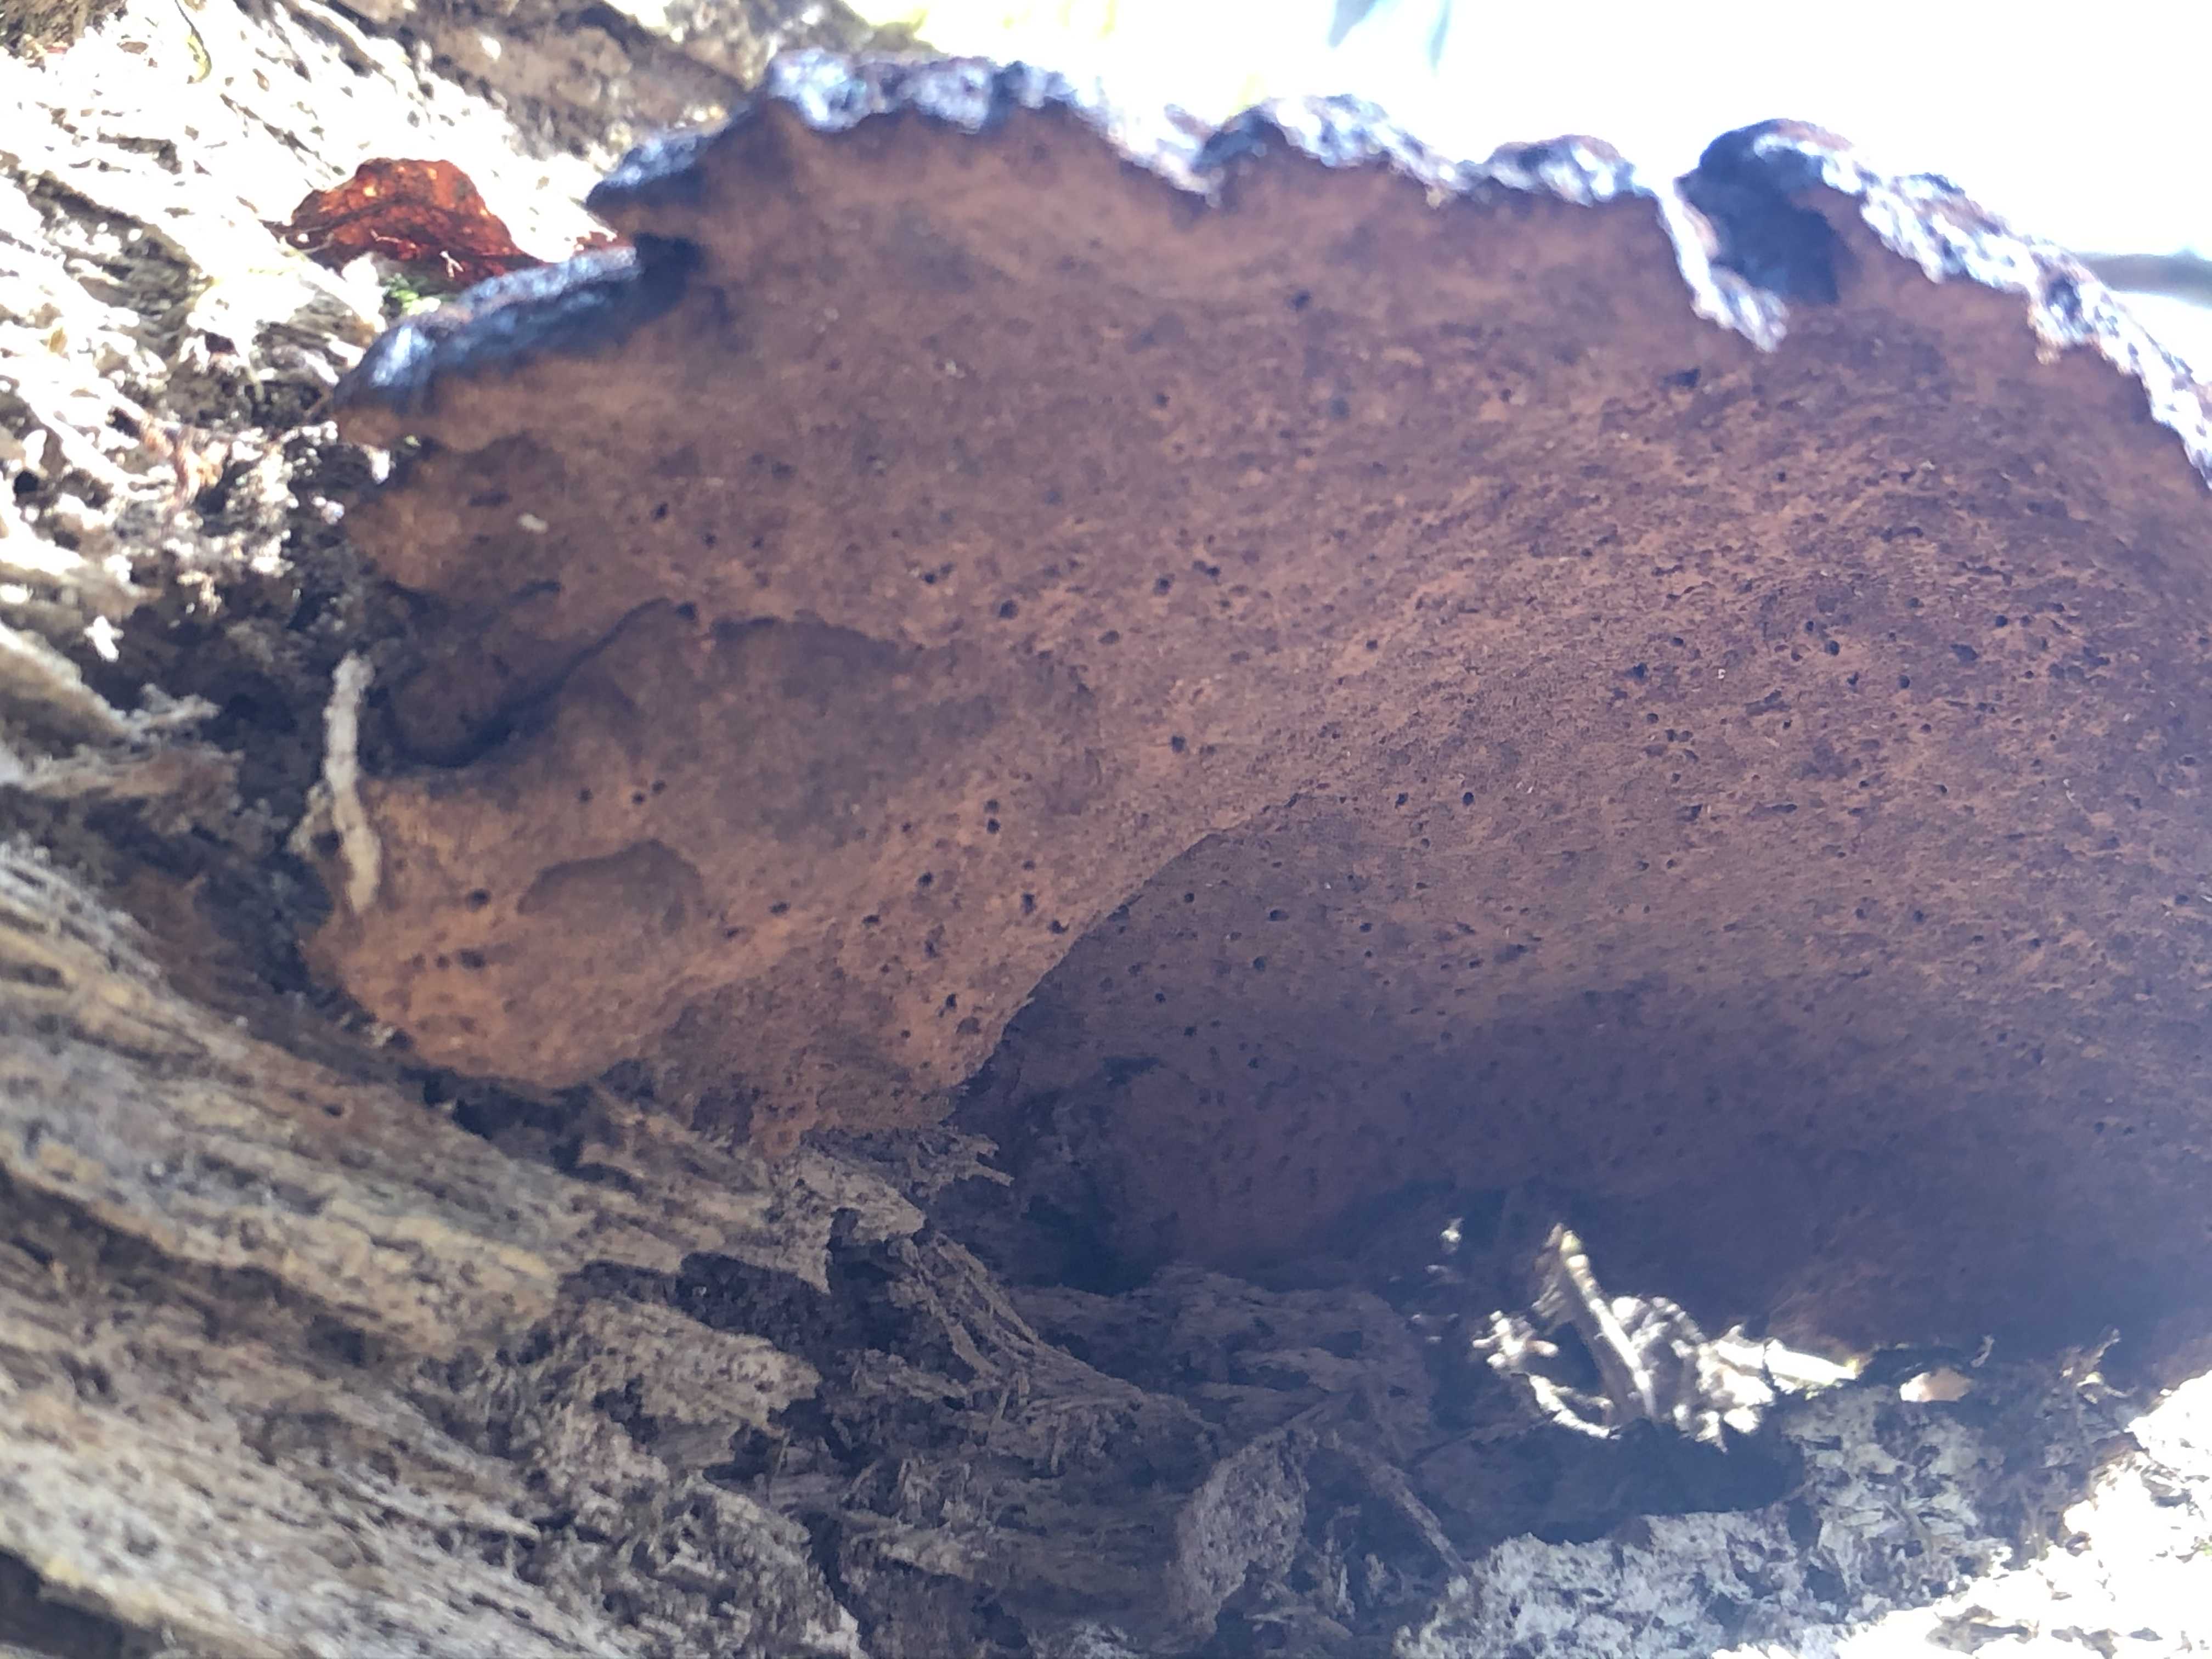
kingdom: Fungi
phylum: Basidiomycota
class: Agaricomycetes
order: Polyporales
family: Ischnodermataceae
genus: Ischnoderma
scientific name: Ischnoderma benzoinum
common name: gran-tjæreporesvamp
